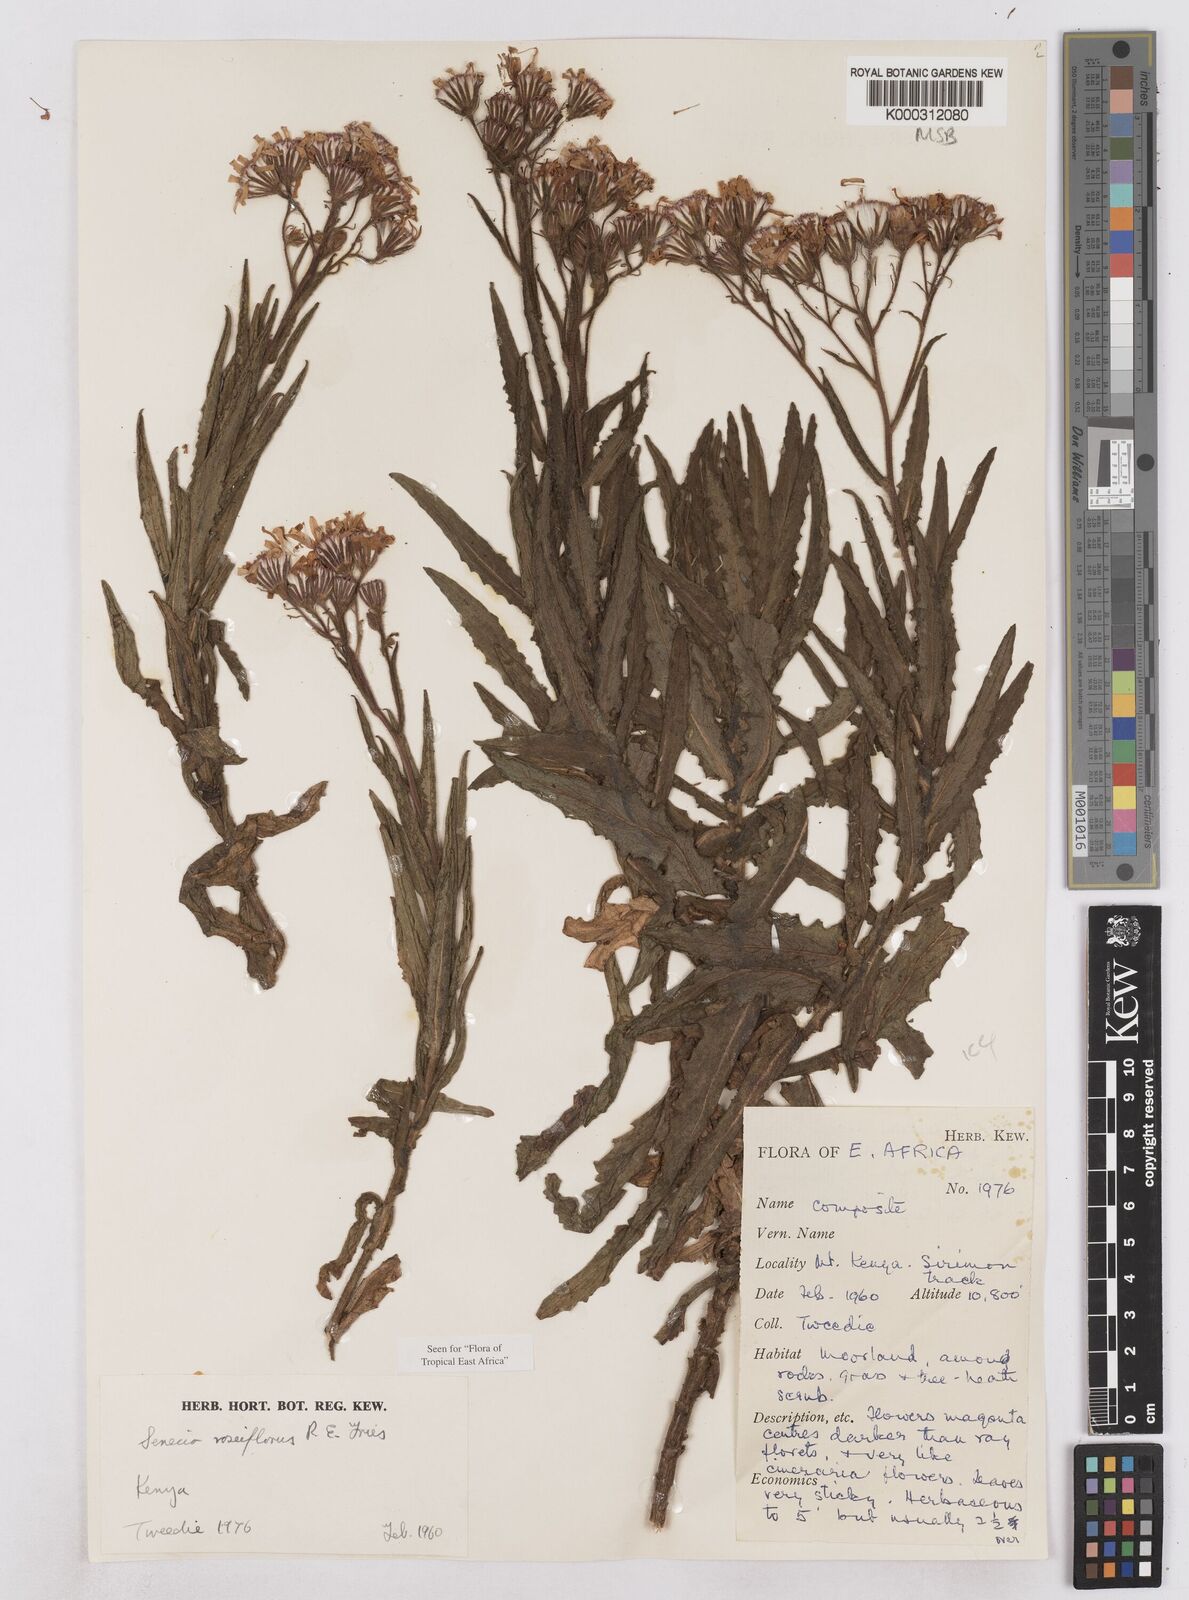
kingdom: Plantae
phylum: Tracheophyta
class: Magnoliopsida
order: Asterales
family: Asteraceae
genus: Senecio
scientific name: Senecio roseiflorus
